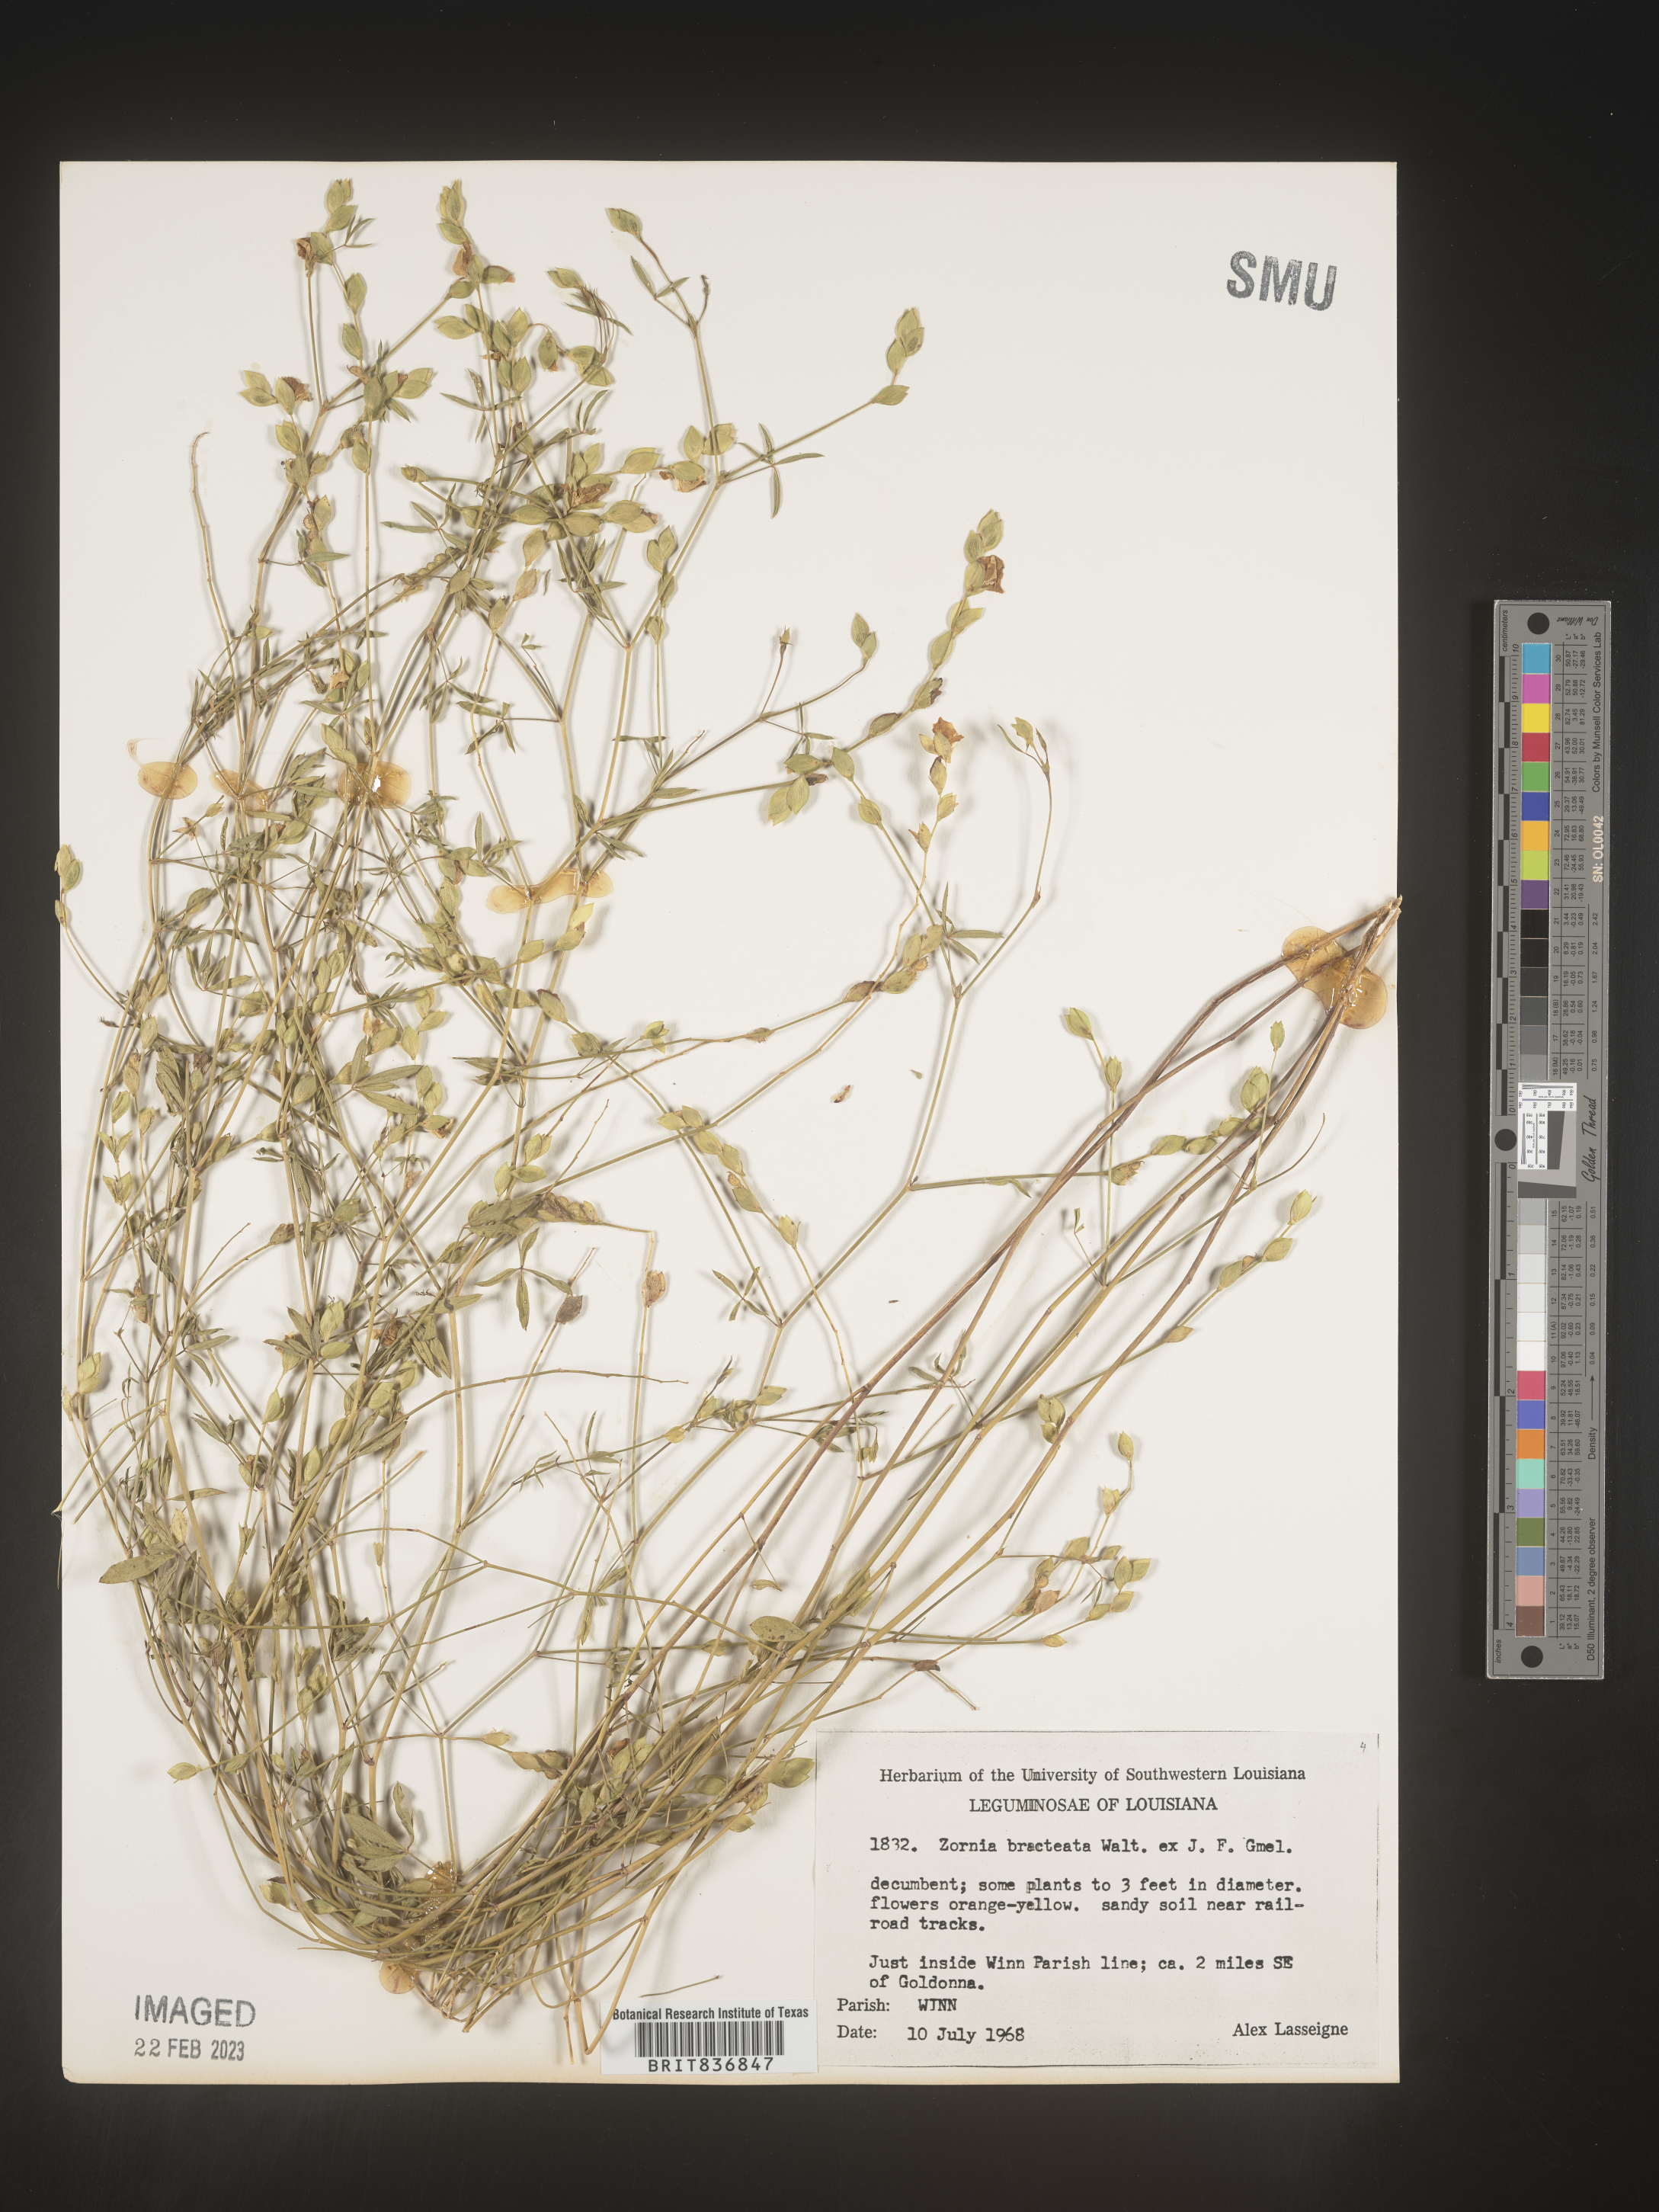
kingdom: Plantae
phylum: Tracheophyta
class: Magnoliopsida
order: Fabales
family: Fabaceae
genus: Zornia
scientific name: Zornia
